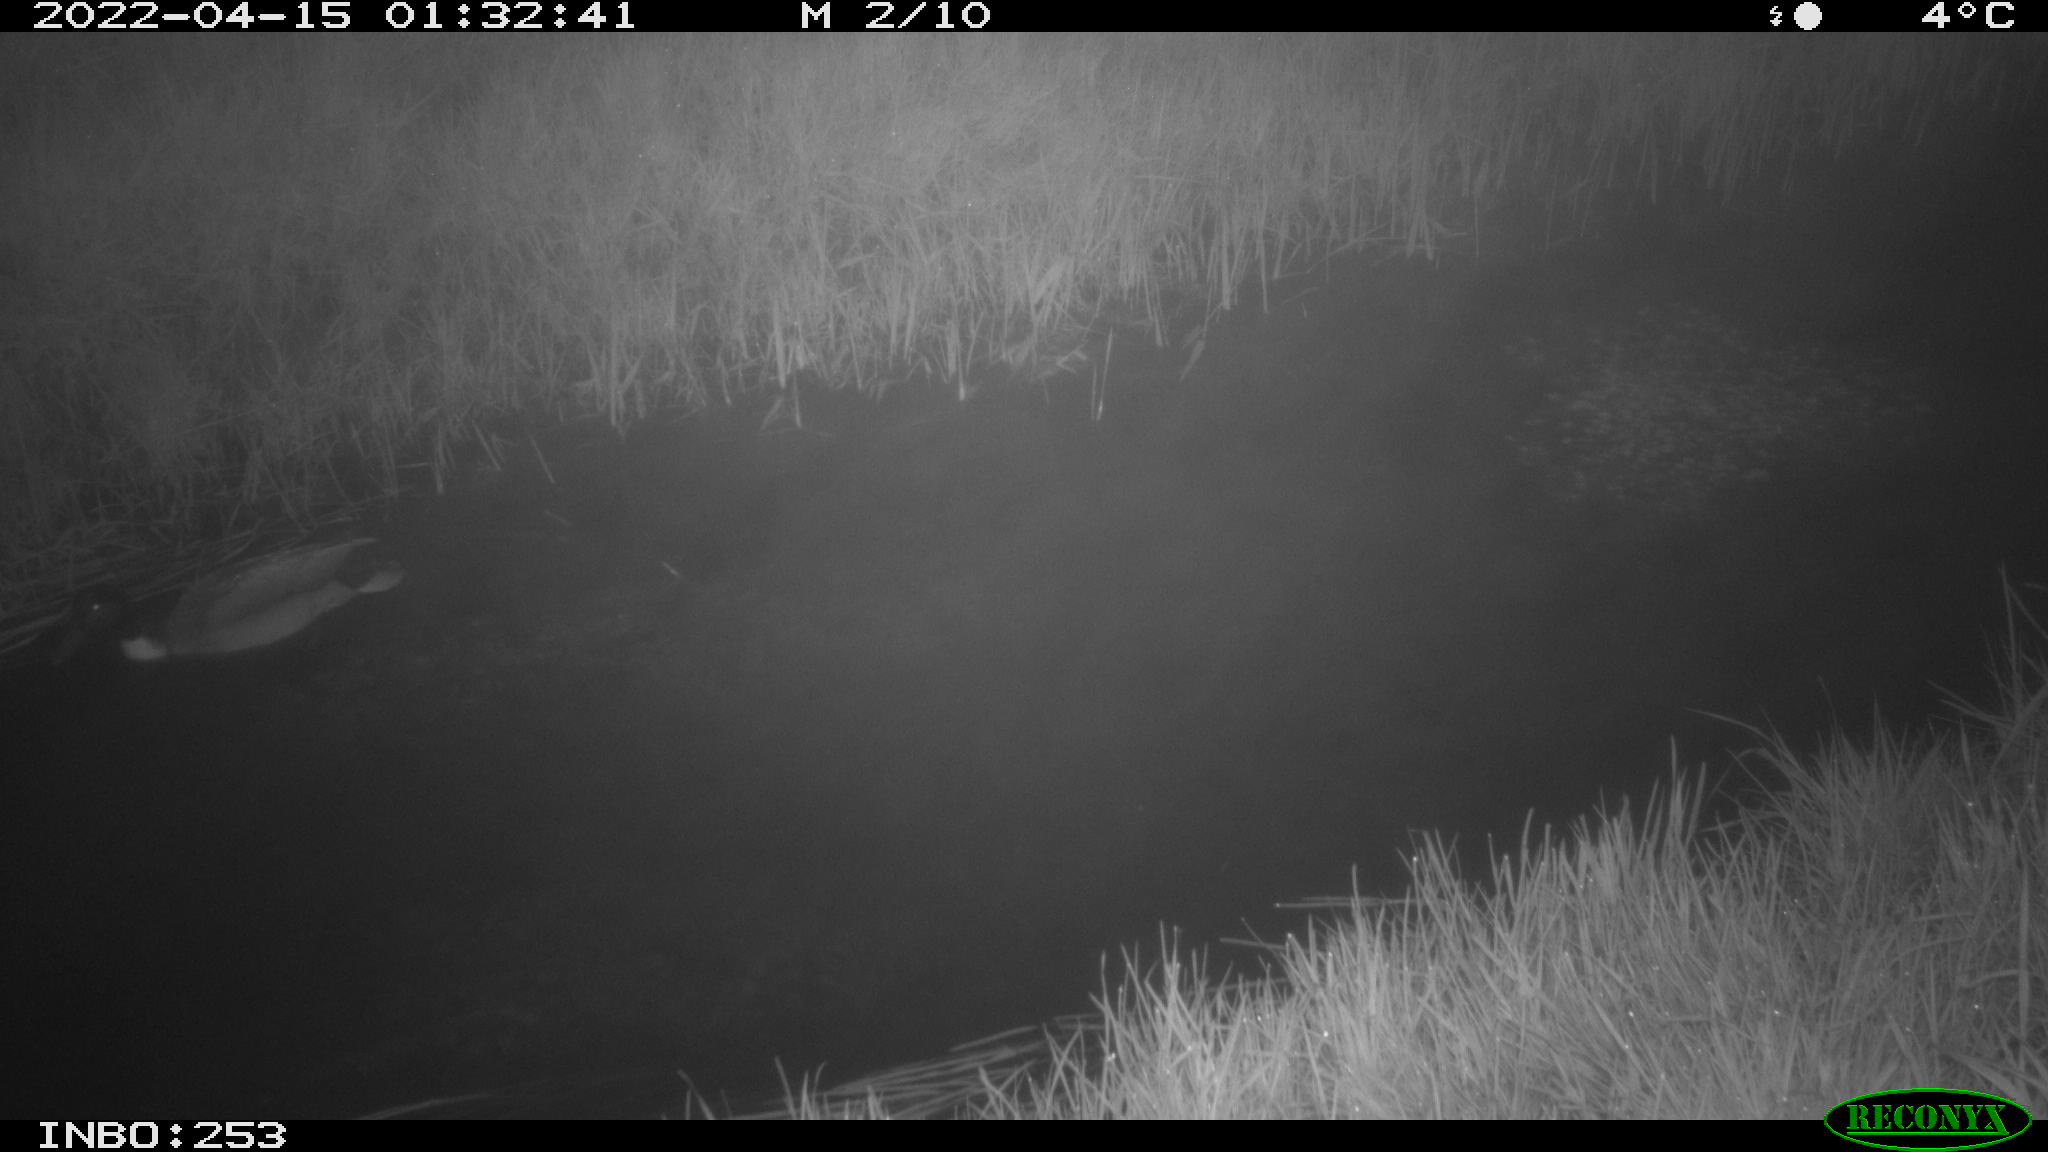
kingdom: Animalia
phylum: Chordata
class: Aves
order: Anseriformes
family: Anatidae
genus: Anas
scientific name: Anas platyrhynchos
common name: Mallard
